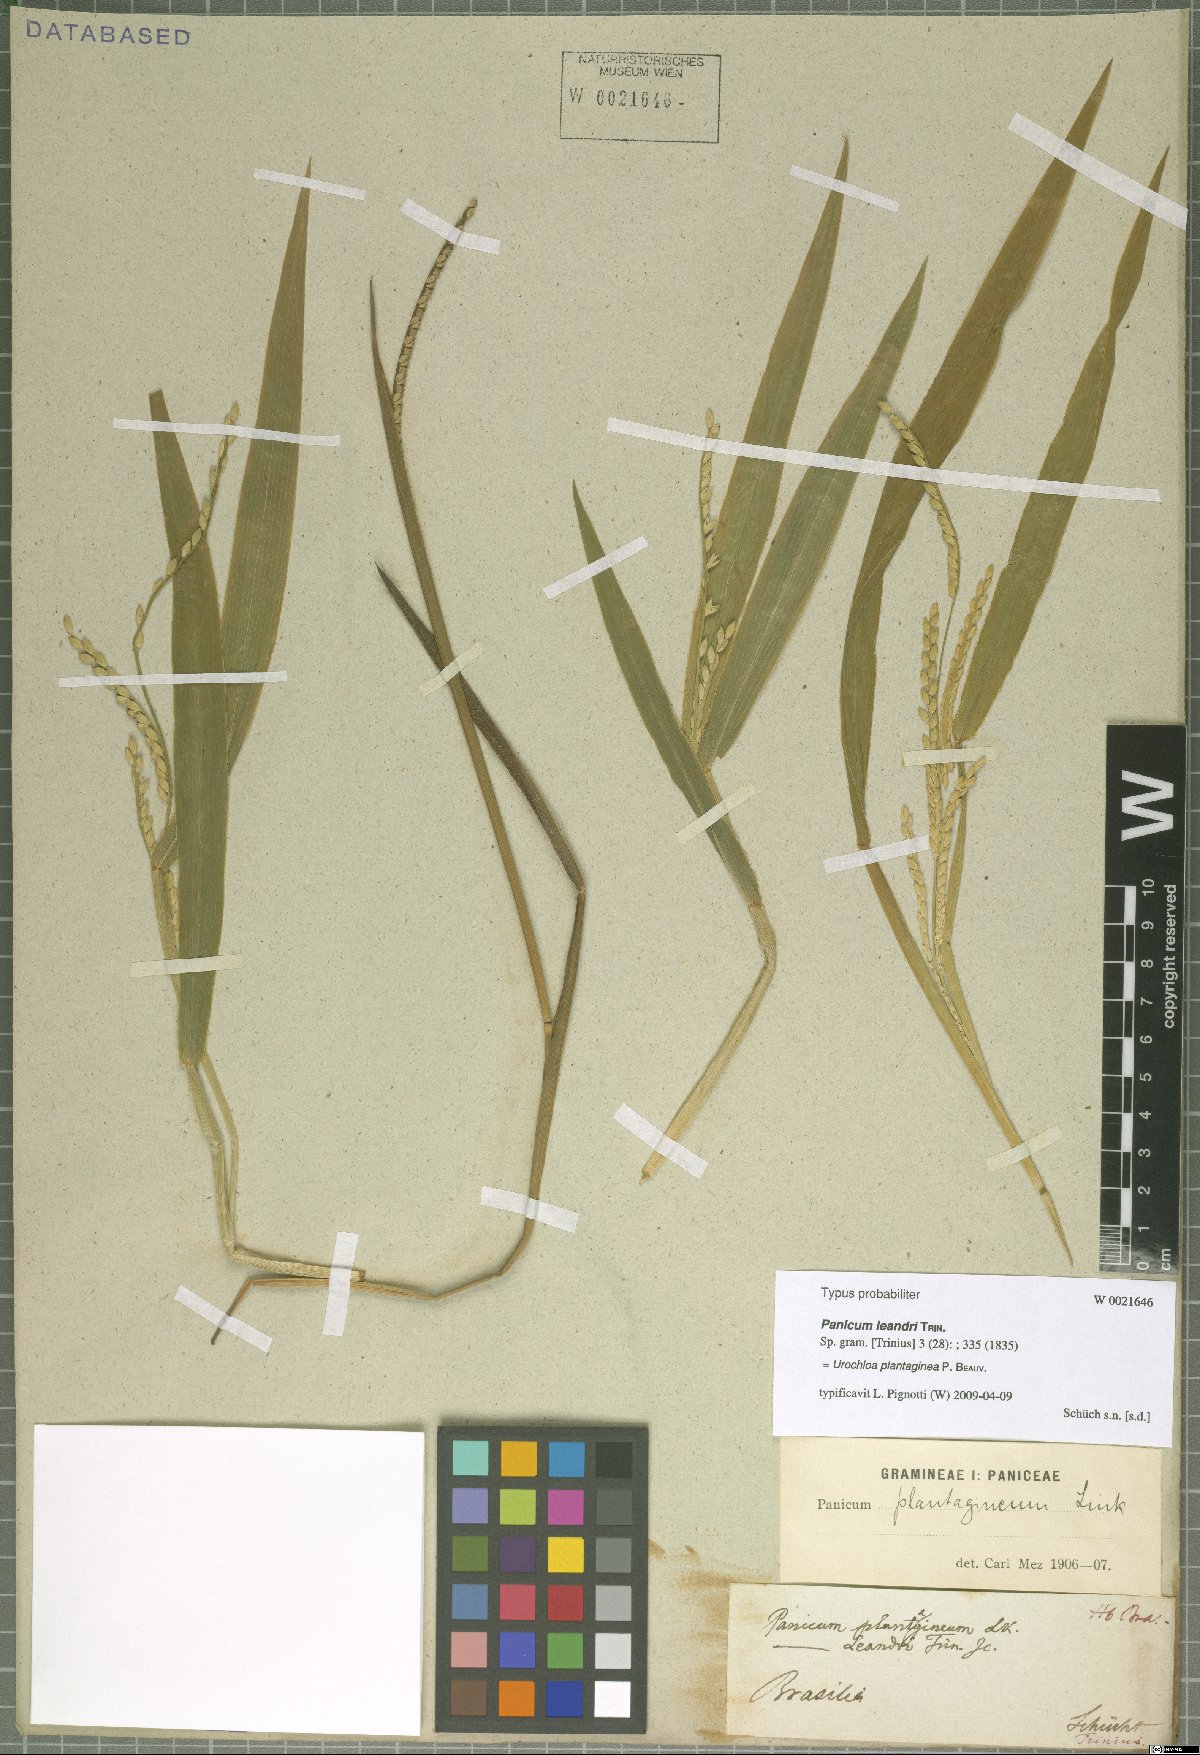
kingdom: Plantae
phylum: Tracheophyta
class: Liliopsida
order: Poales
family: Poaceae
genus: Urochloa
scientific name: Urochloa plantaginea
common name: Plantain signalgrass
